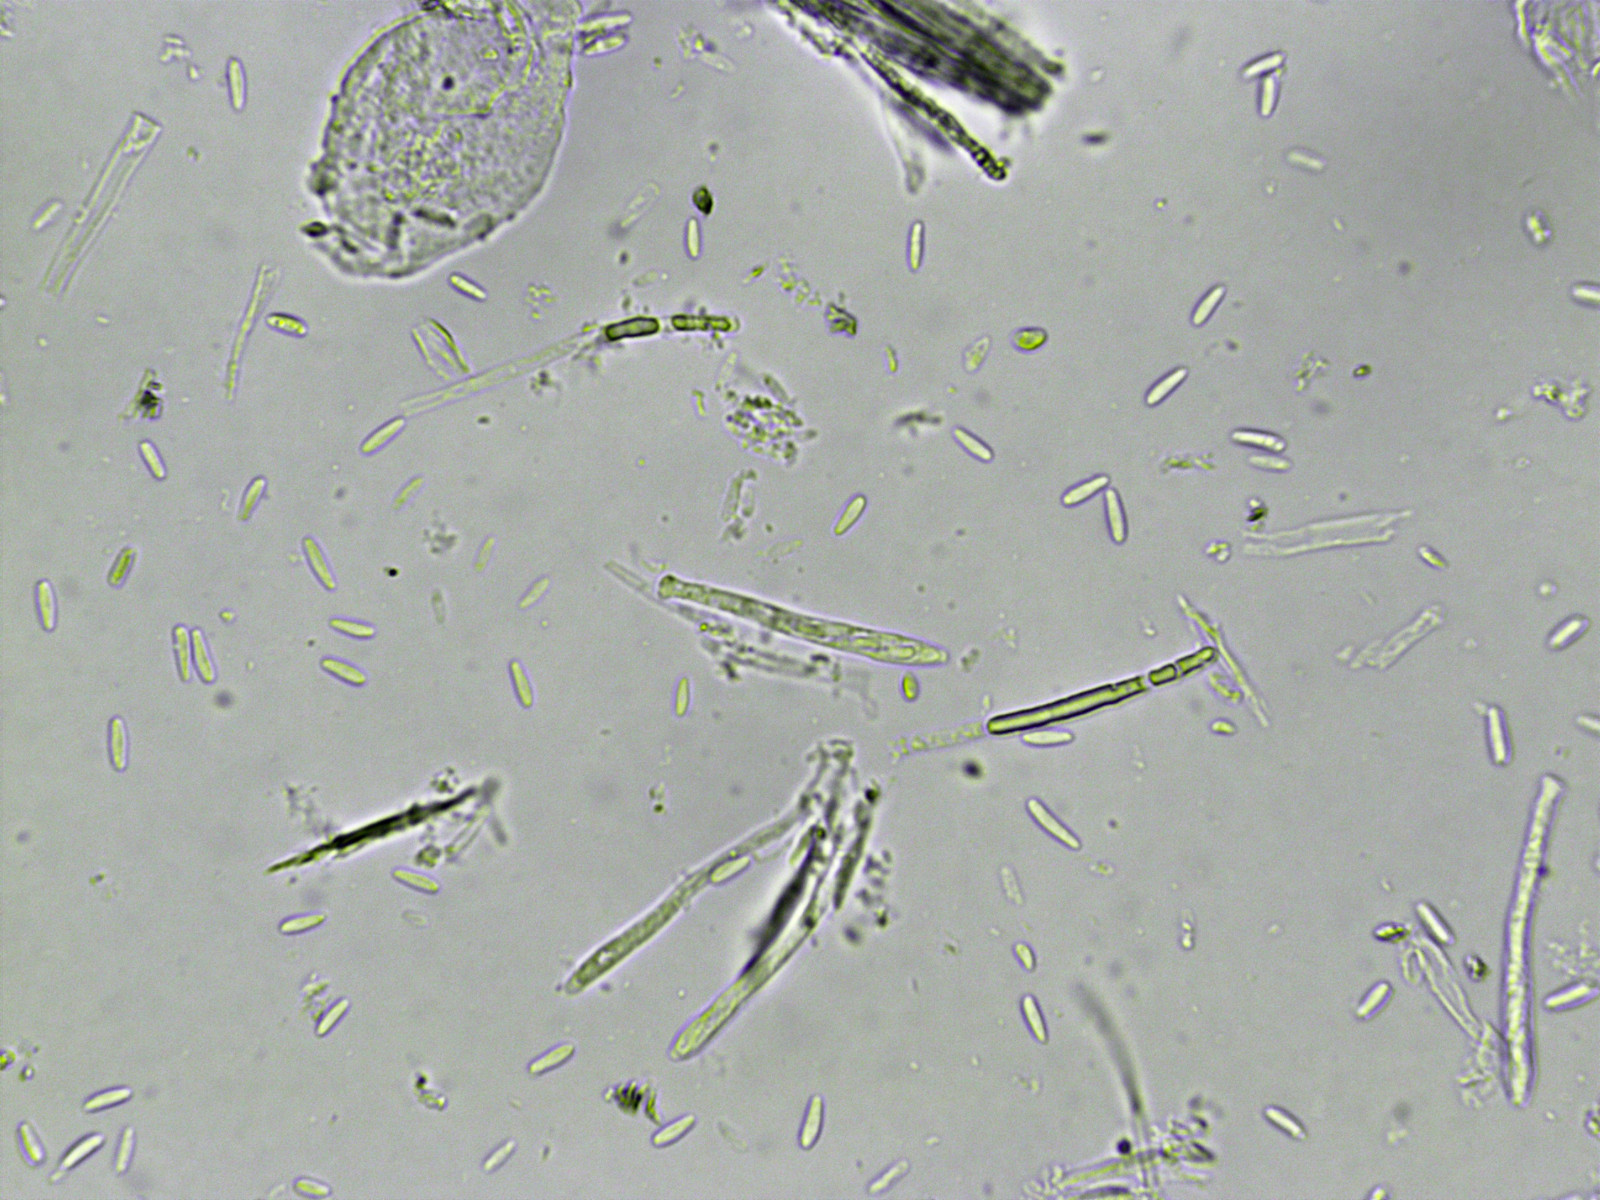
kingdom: Fungi
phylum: Ascomycota
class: Leotiomycetes
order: Helotiales
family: Mollisiaceae
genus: Mollisia
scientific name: Mollisia
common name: gråskive
